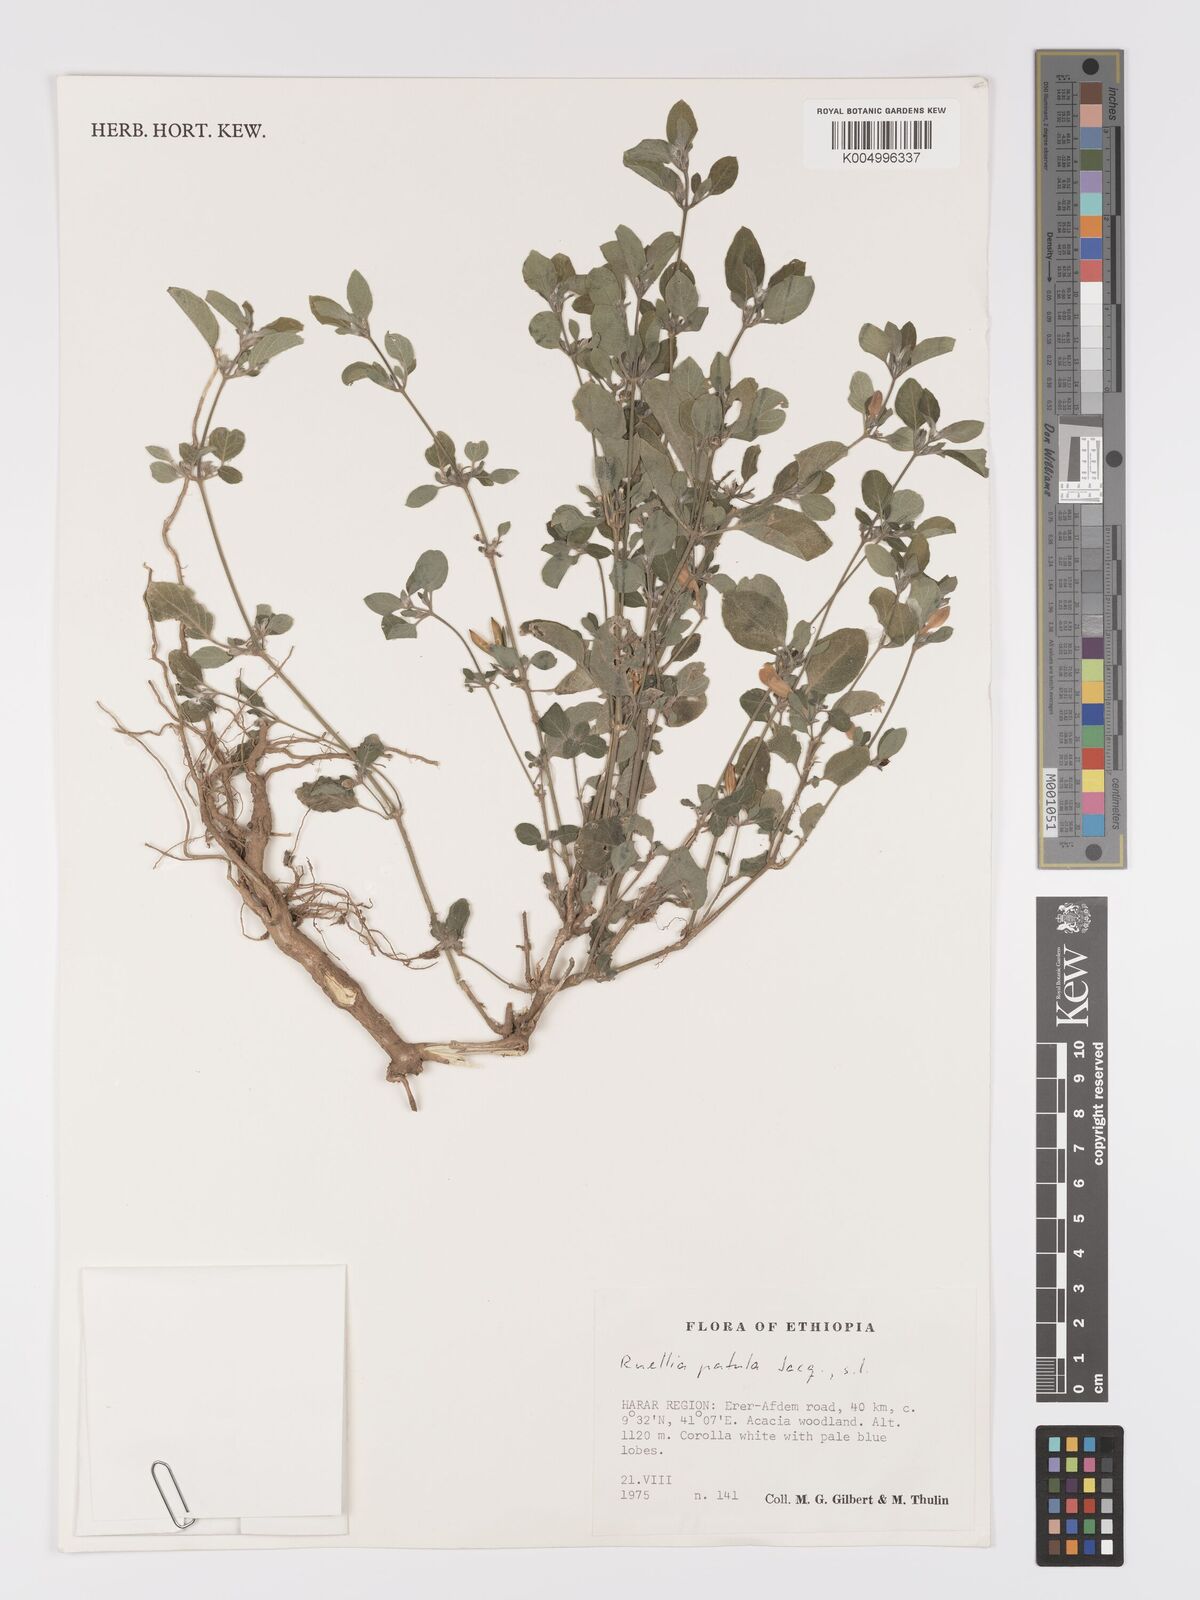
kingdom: Plantae
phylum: Tracheophyta
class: Magnoliopsida
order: Lamiales
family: Acanthaceae
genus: Ruellia
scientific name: Ruellia patula
